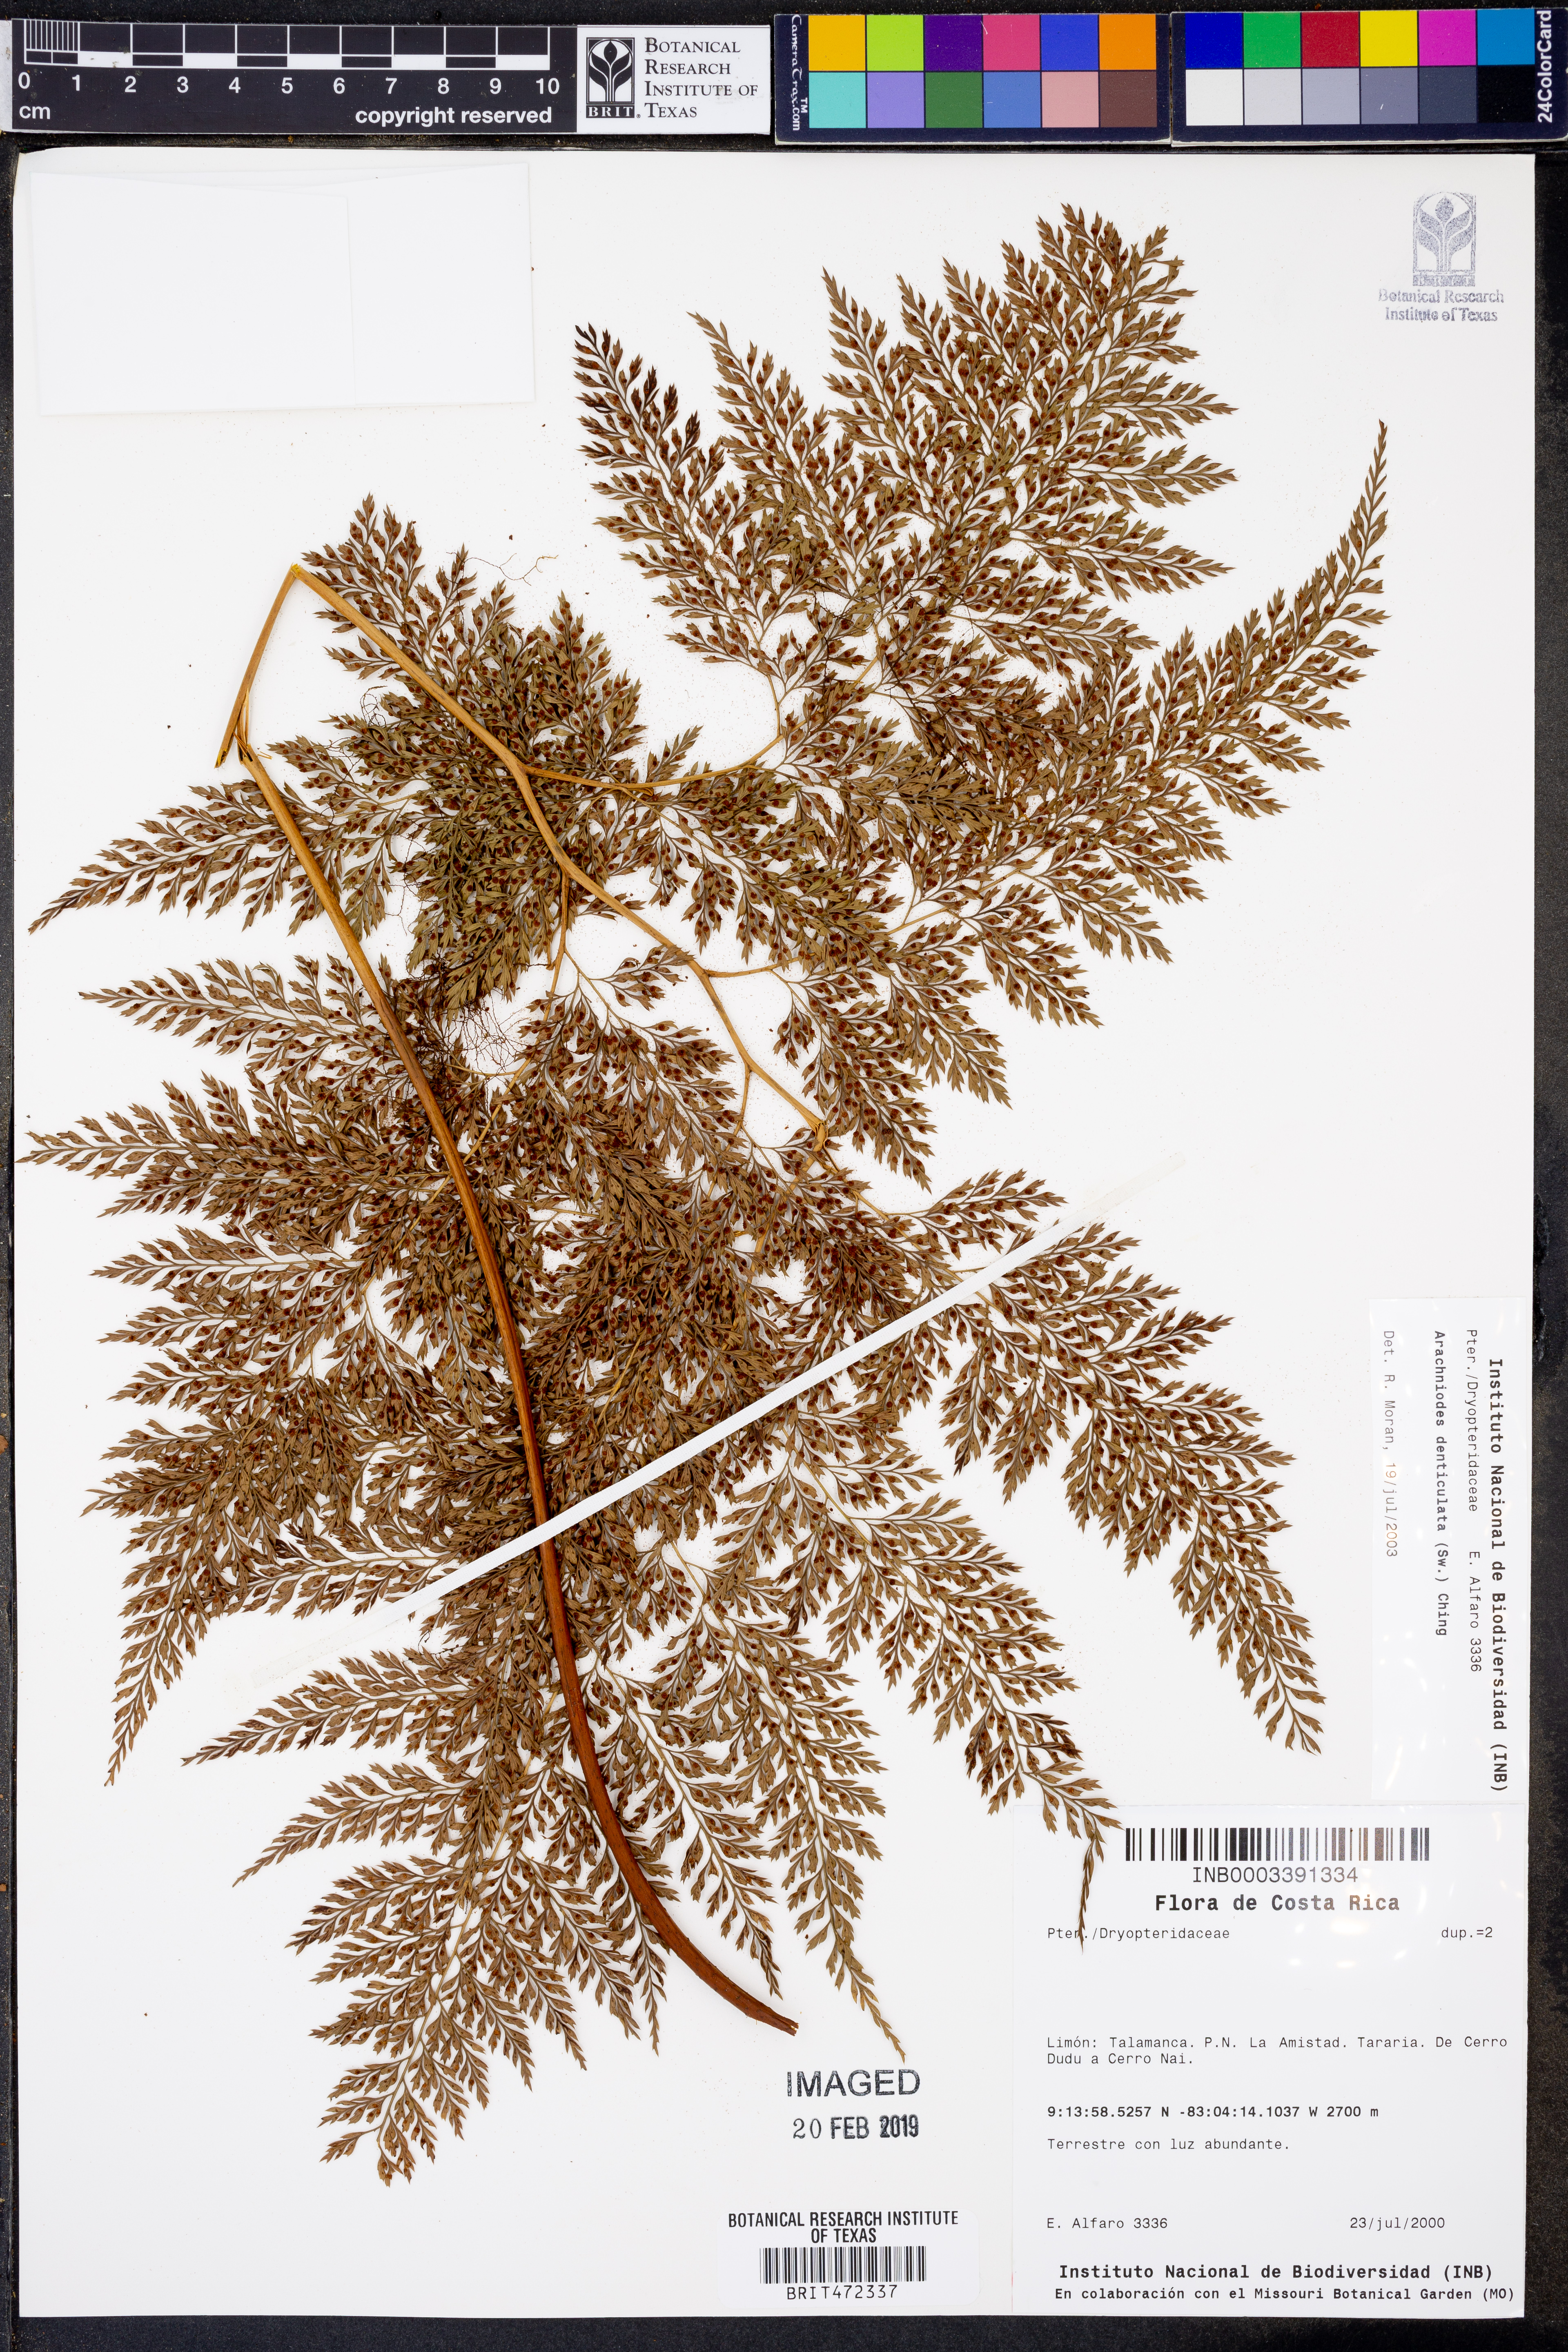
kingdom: Plantae
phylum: Tracheophyta
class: Polypodiopsida
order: Polypodiales
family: Dryopteridaceae
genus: Arachniodes
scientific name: Arachniodes denticulata
